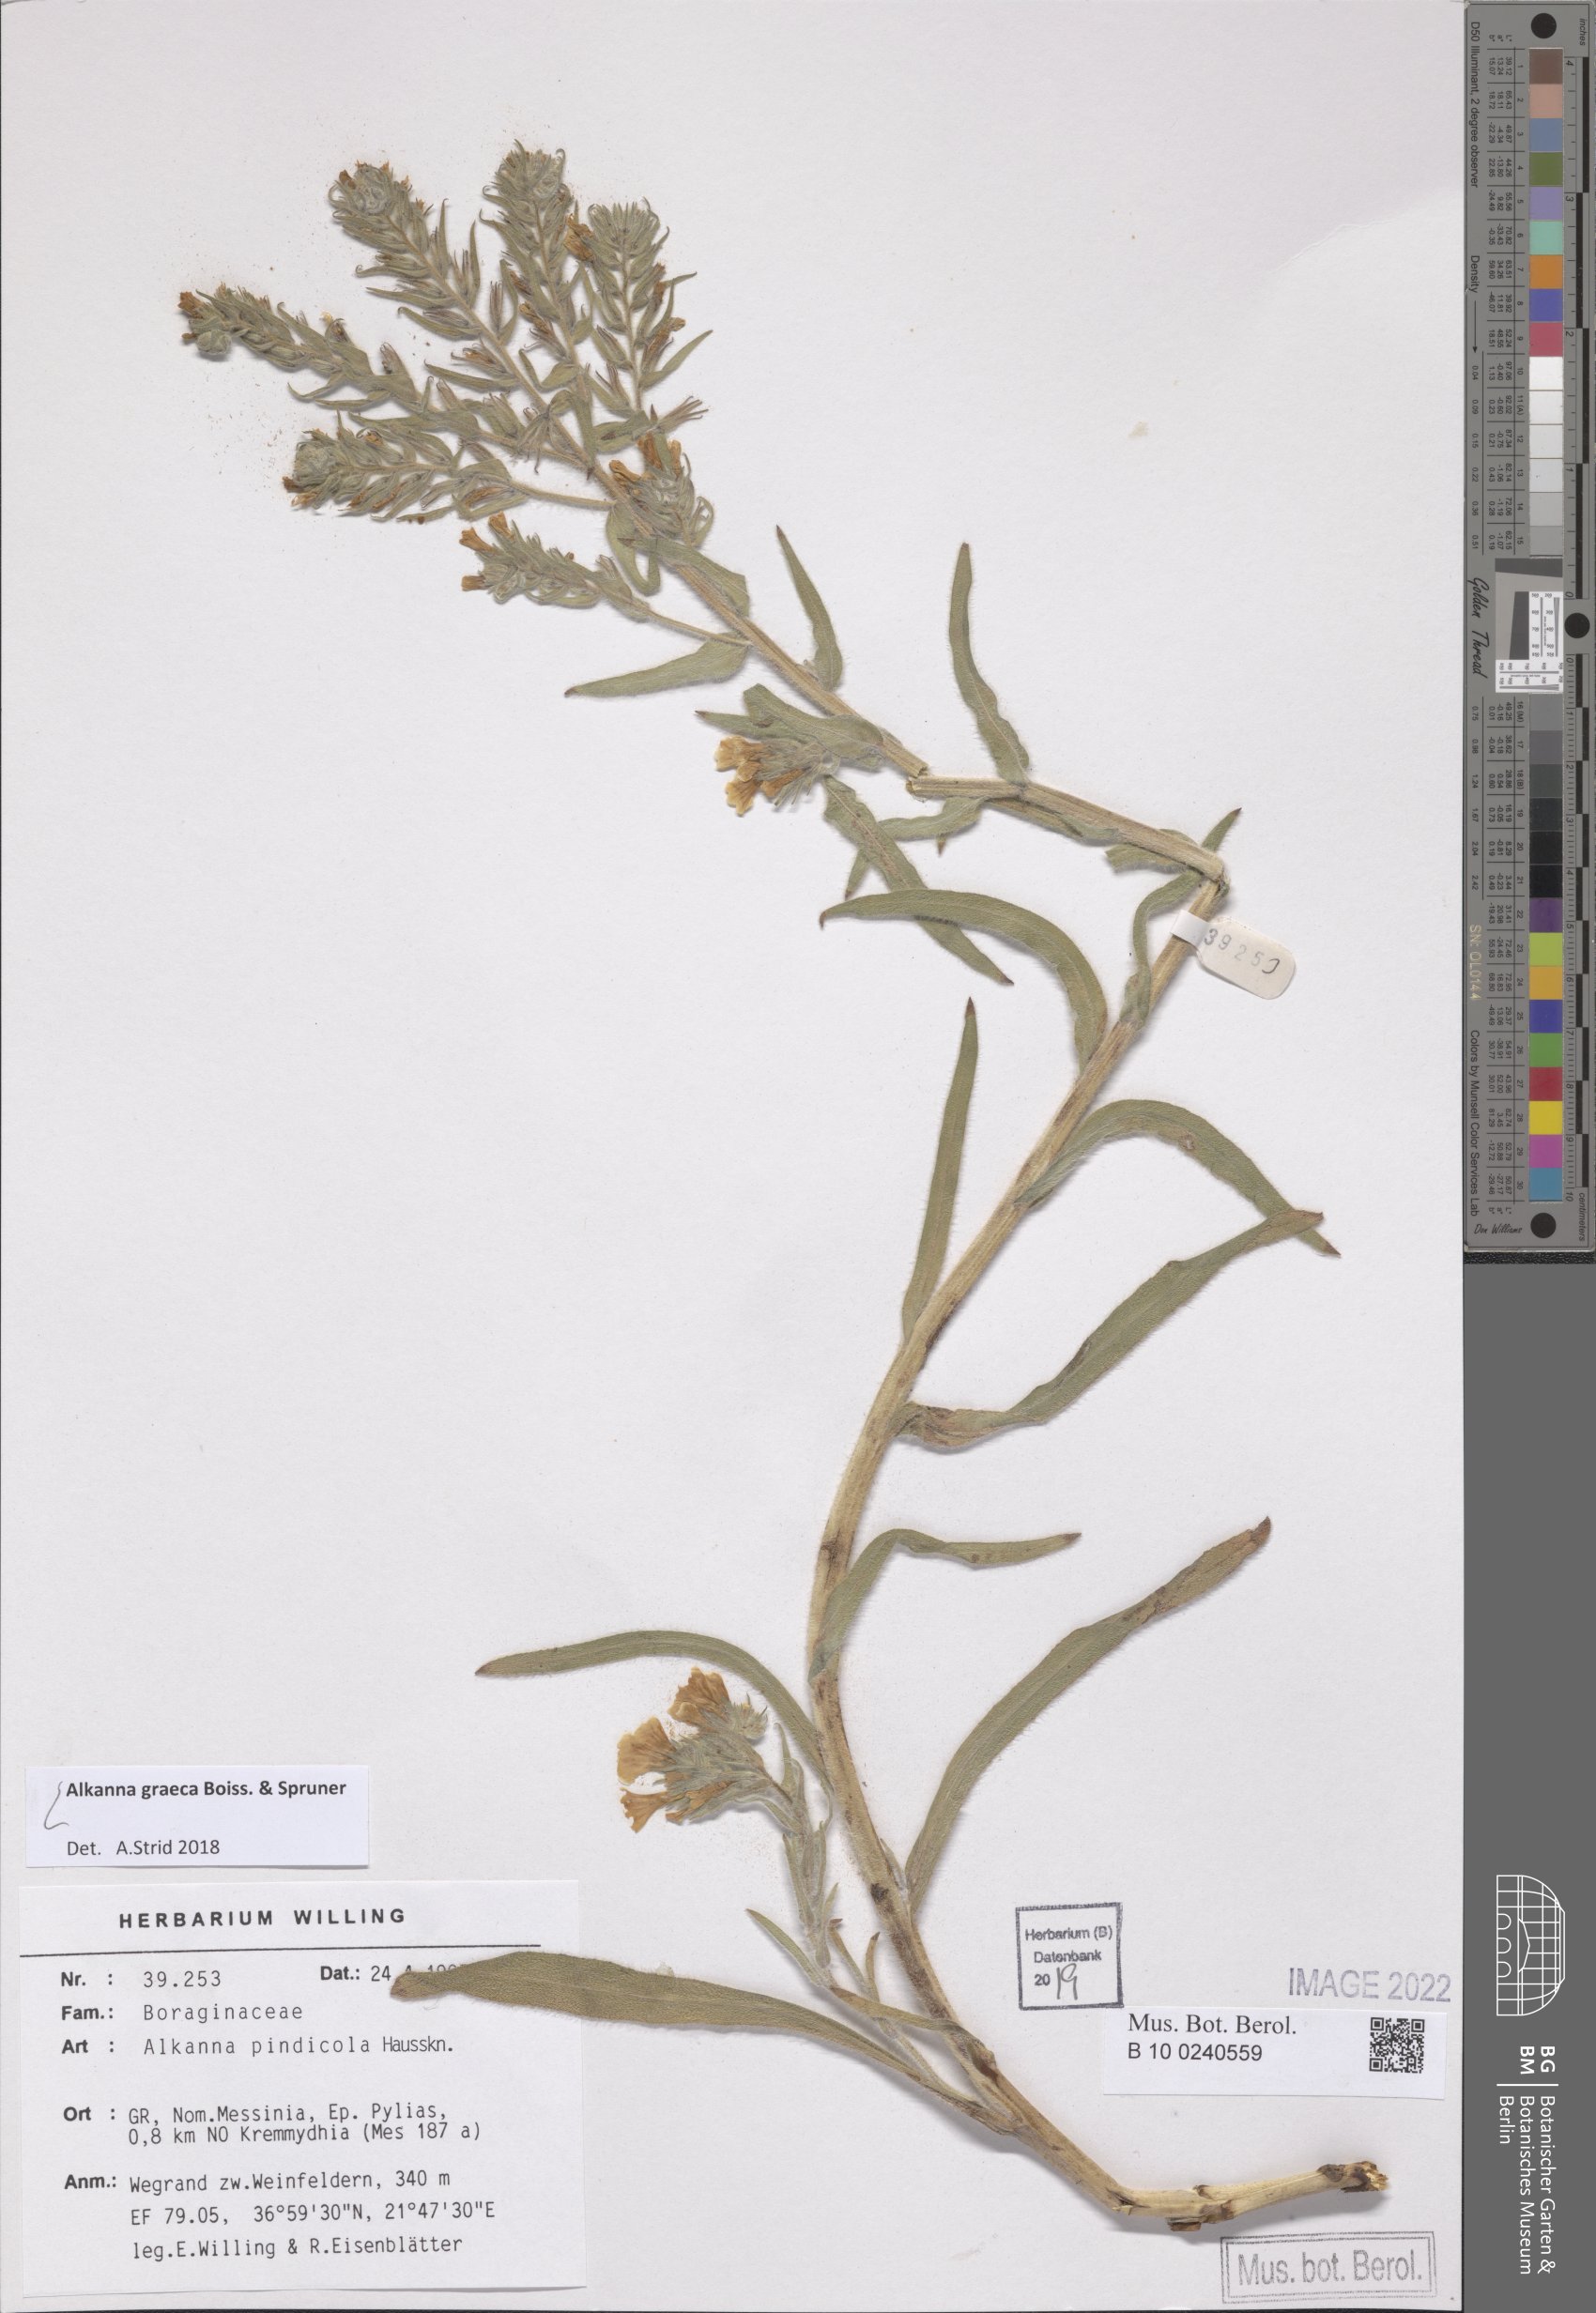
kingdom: Plantae
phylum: Tracheophyta
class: Magnoliopsida
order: Boraginales
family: Boraginaceae
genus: Alkanna
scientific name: Alkanna graeca
